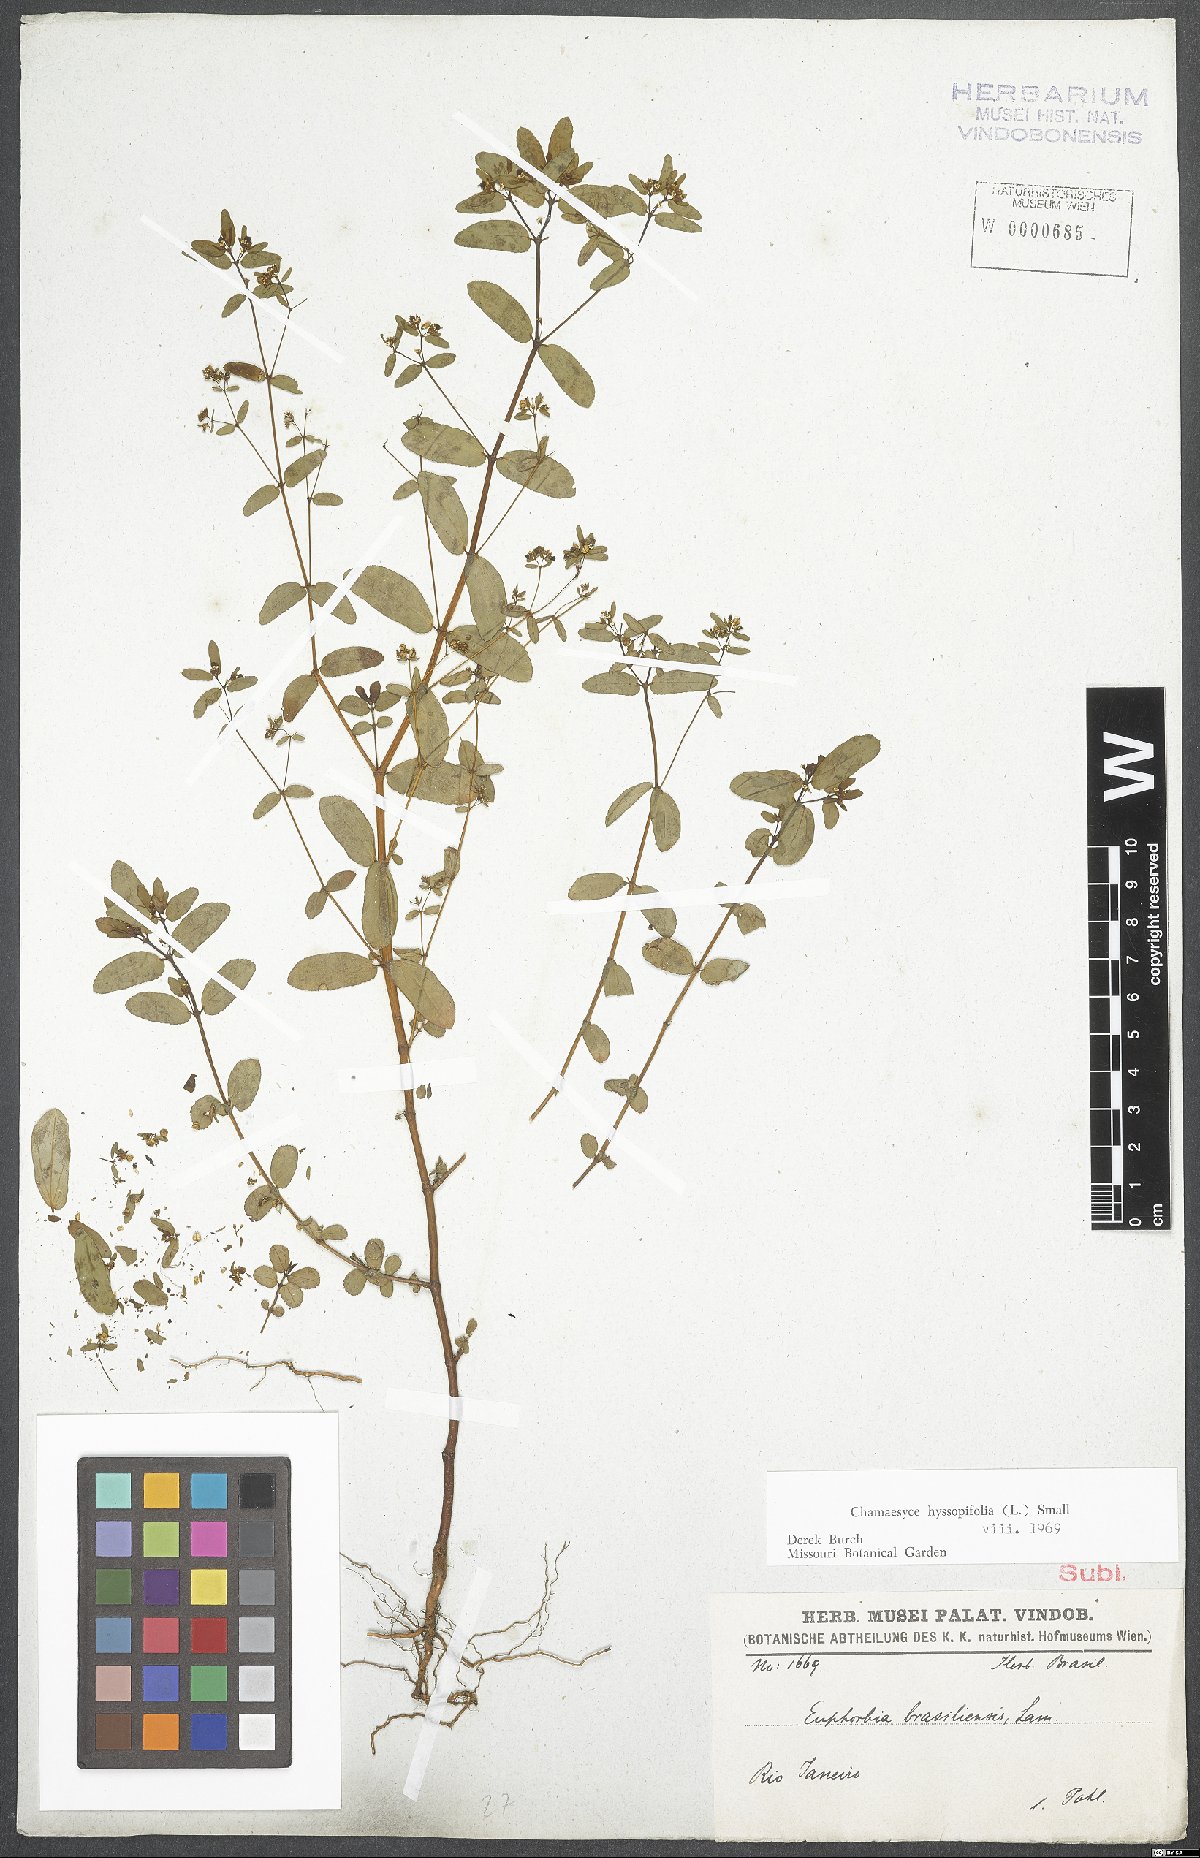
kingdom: Plantae
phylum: Tracheophyta
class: Magnoliopsida
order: Malpighiales
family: Euphorbiaceae
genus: Euphorbia
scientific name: Euphorbia hyssopifolia
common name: Hyssopleaf sandmat
